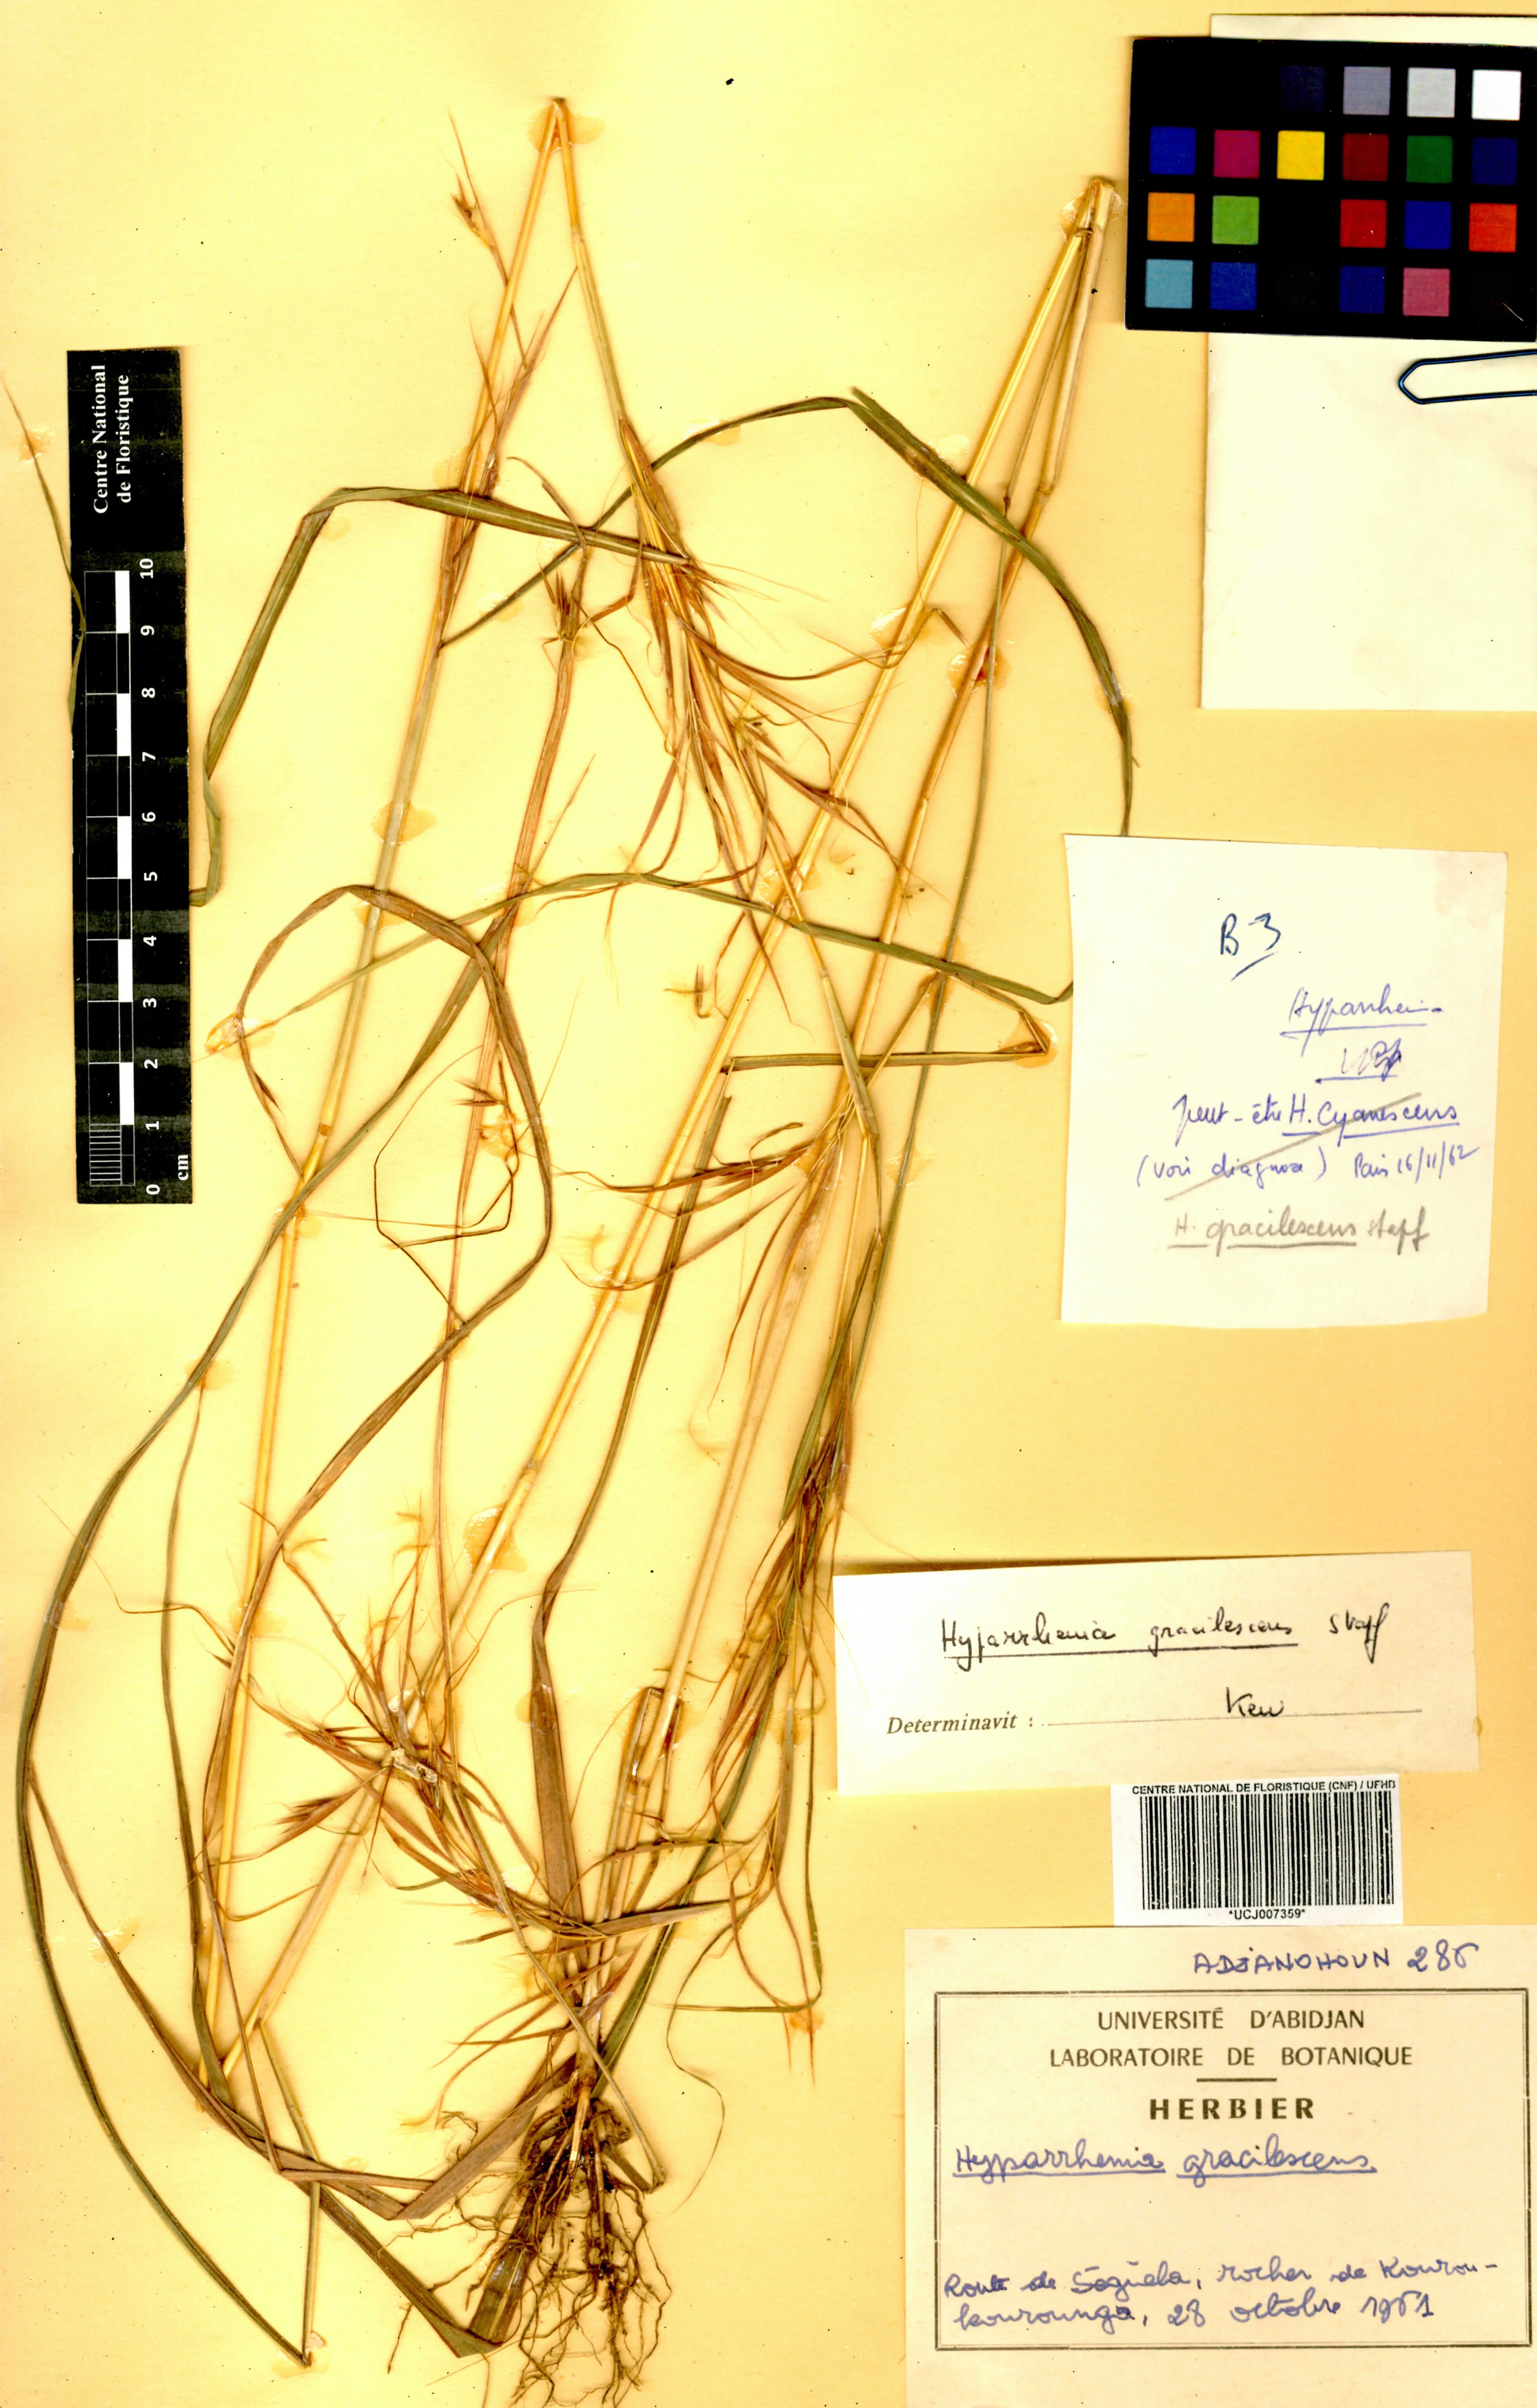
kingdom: Plantae
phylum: Tracheophyta
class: Liliopsida
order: Poales
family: Poaceae
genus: Hyparrhenia
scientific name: Hyparrhenia welwitschii
